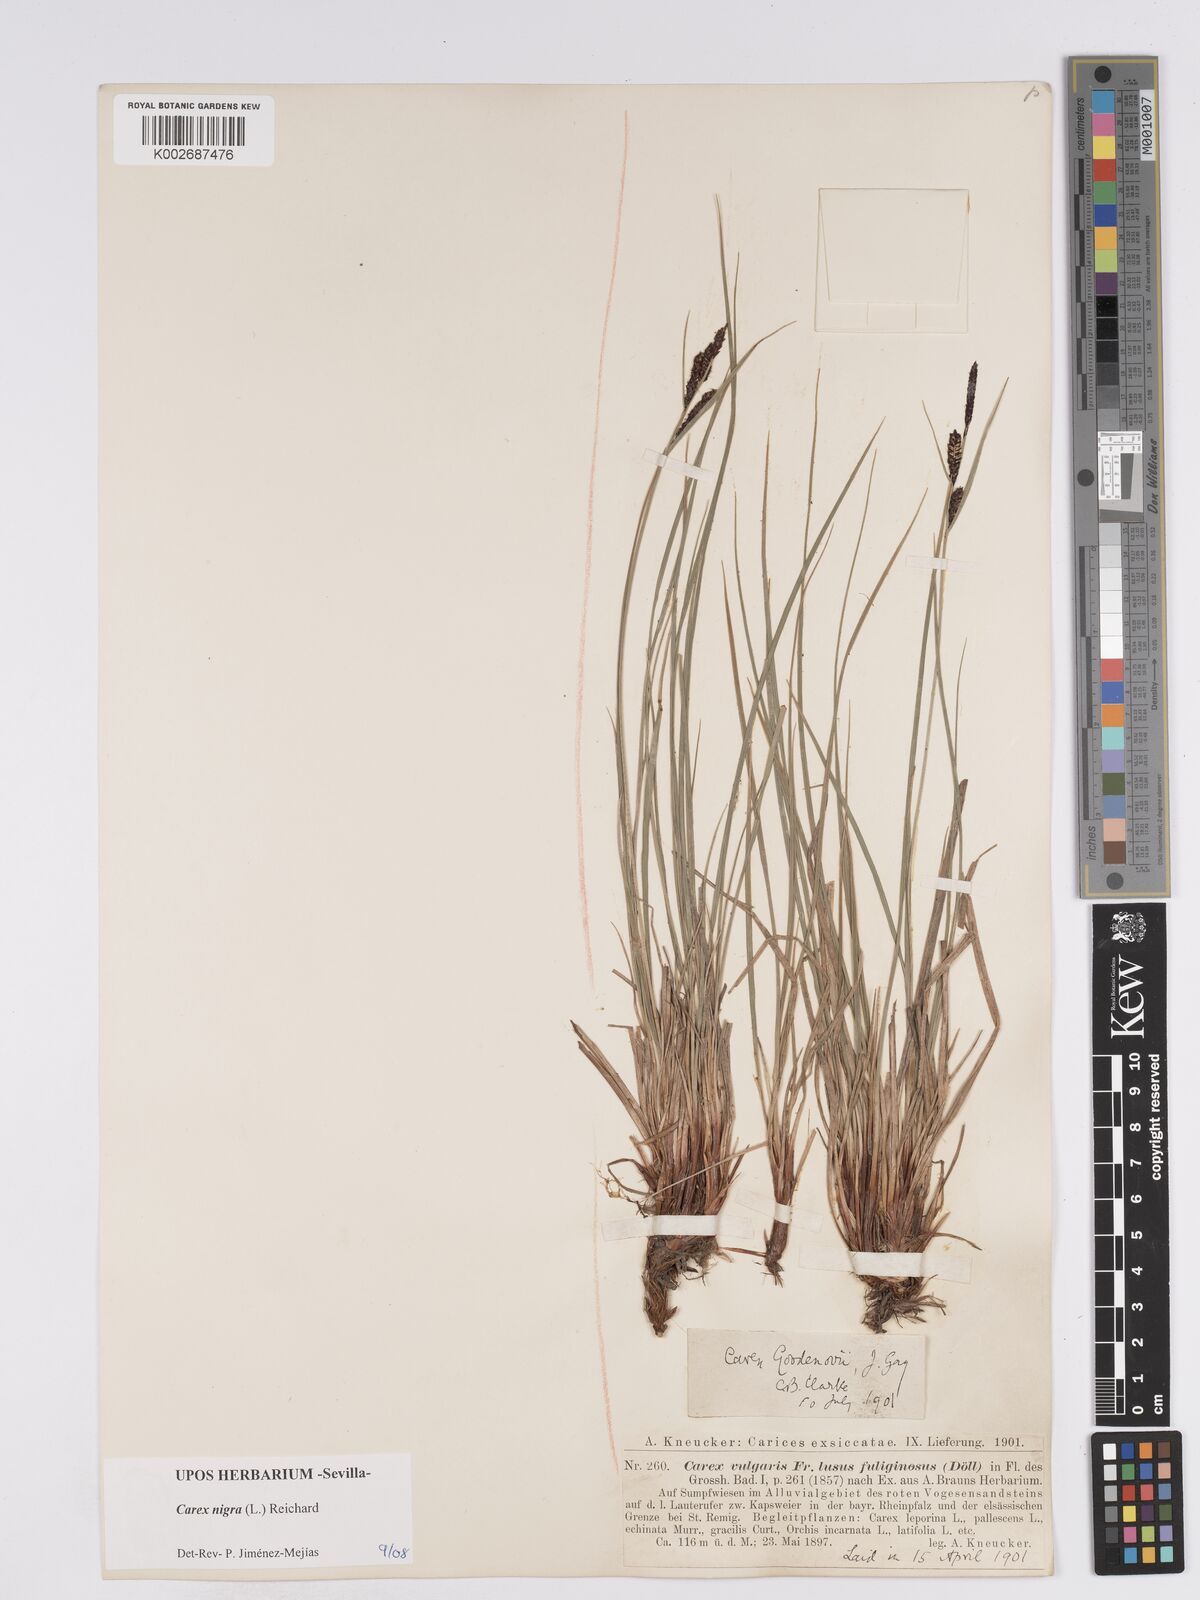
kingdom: Plantae
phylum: Tracheophyta
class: Liliopsida
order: Poales
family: Cyperaceae
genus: Carex
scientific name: Carex nigra
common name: Common sedge
